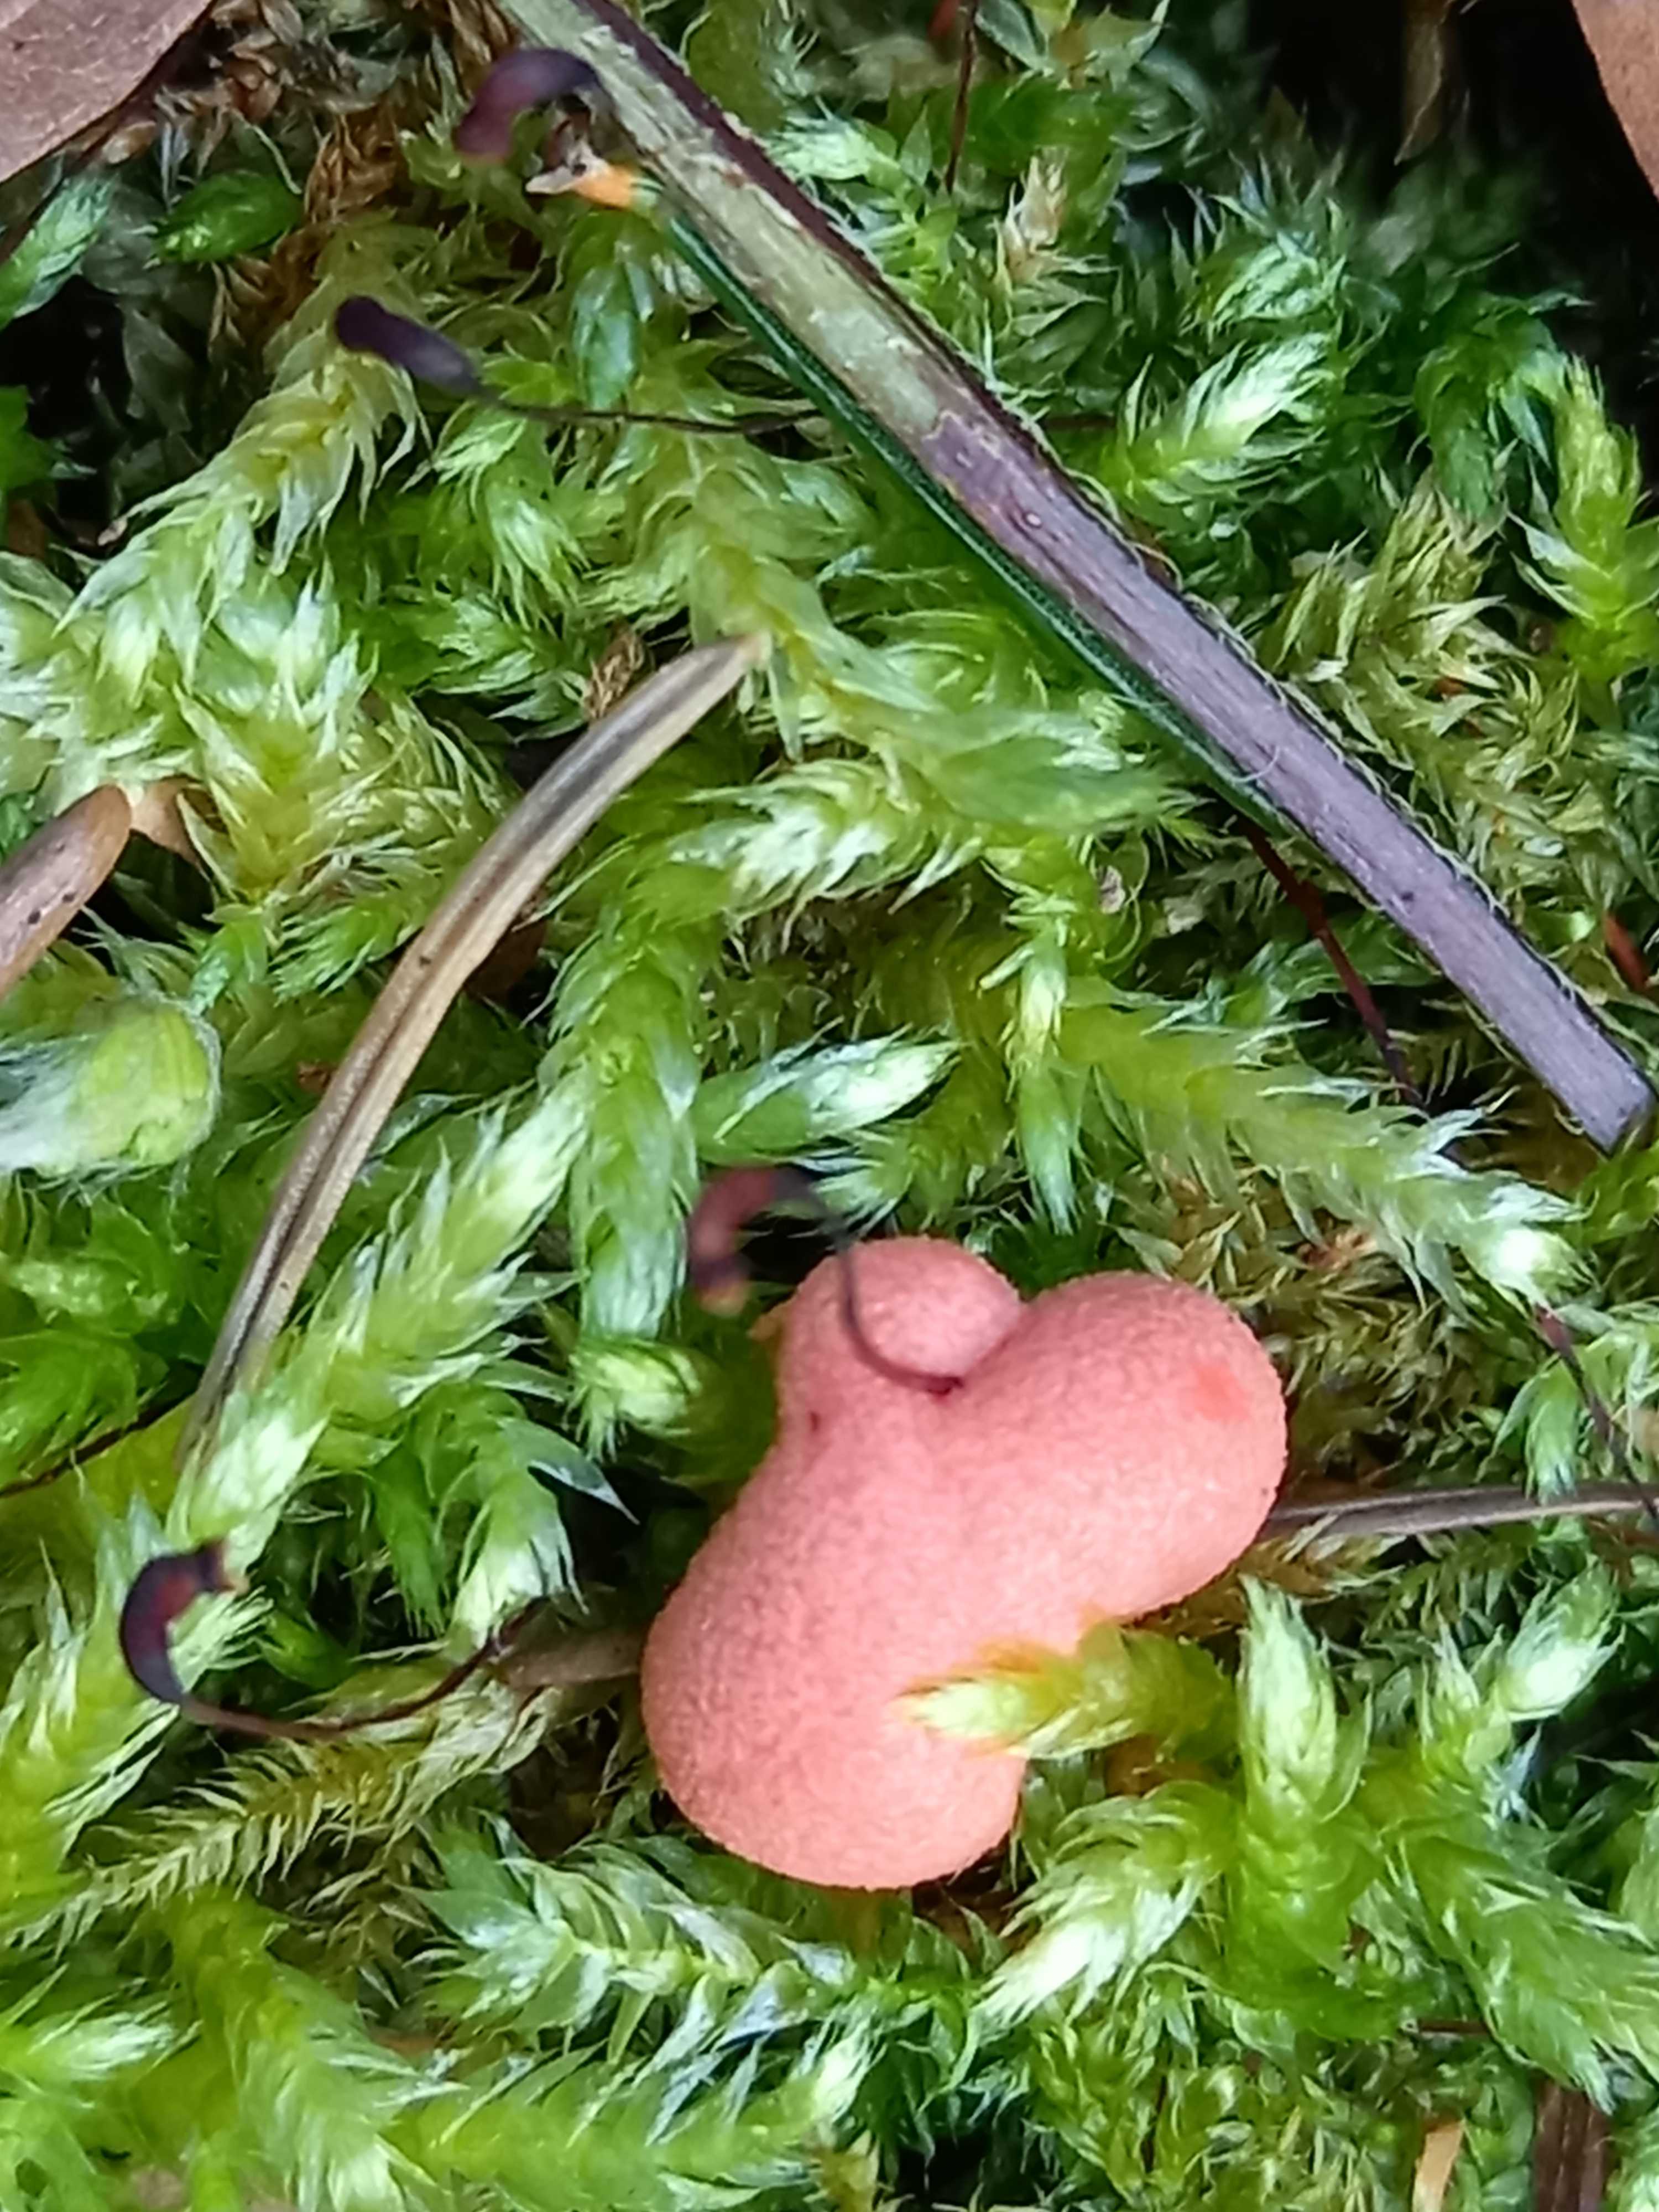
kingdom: Protozoa
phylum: Mycetozoa
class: Myxomycetes
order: Cribrariales
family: Tubiferaceae
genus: Lycogala
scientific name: Lycogala epidendrum
